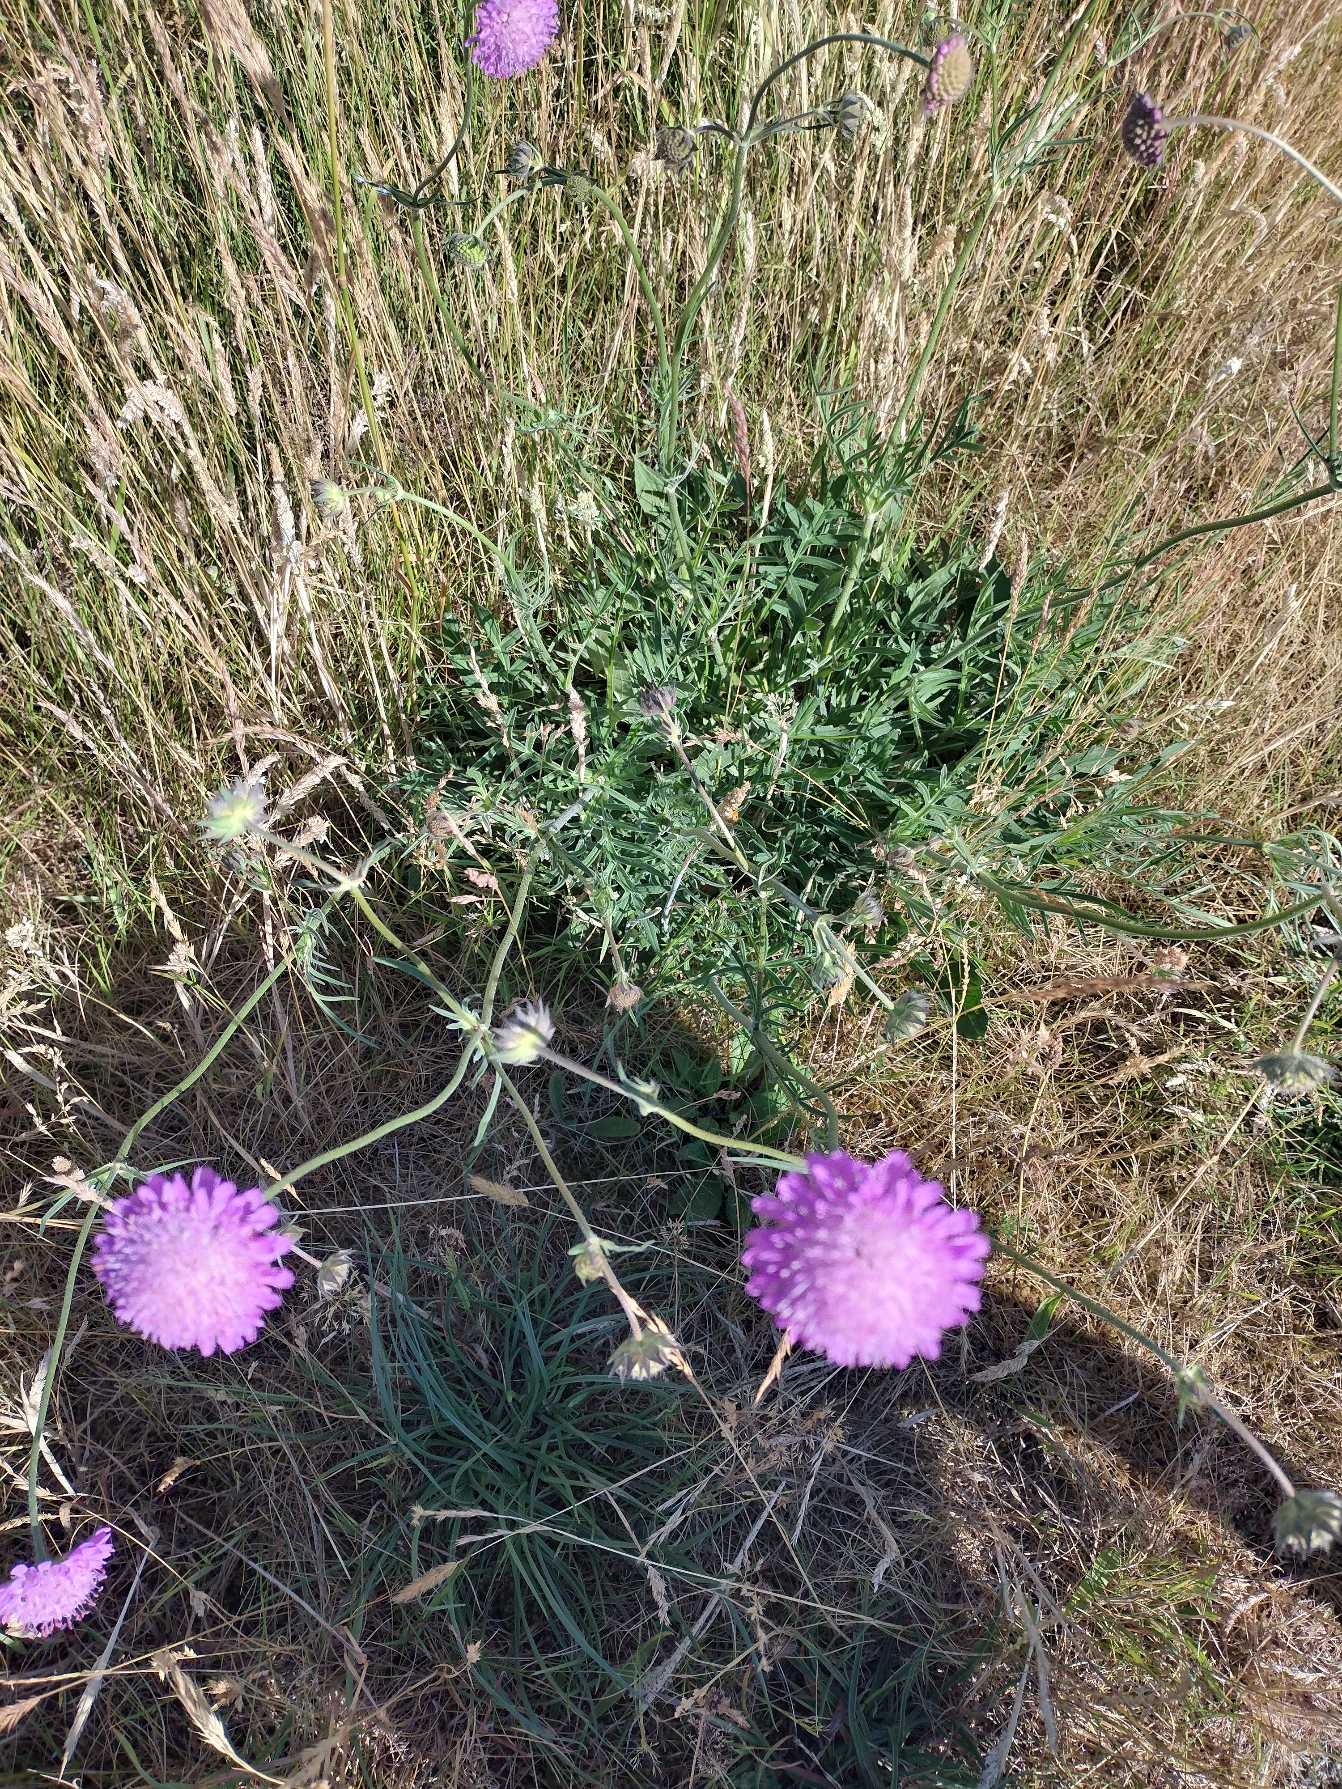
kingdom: Plantae
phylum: Tracheophyta
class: Magnoliopsida
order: Dipsacales
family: Caprifoliaceae
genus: Knautia
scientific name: Knautia arvensis
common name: Blåhat
